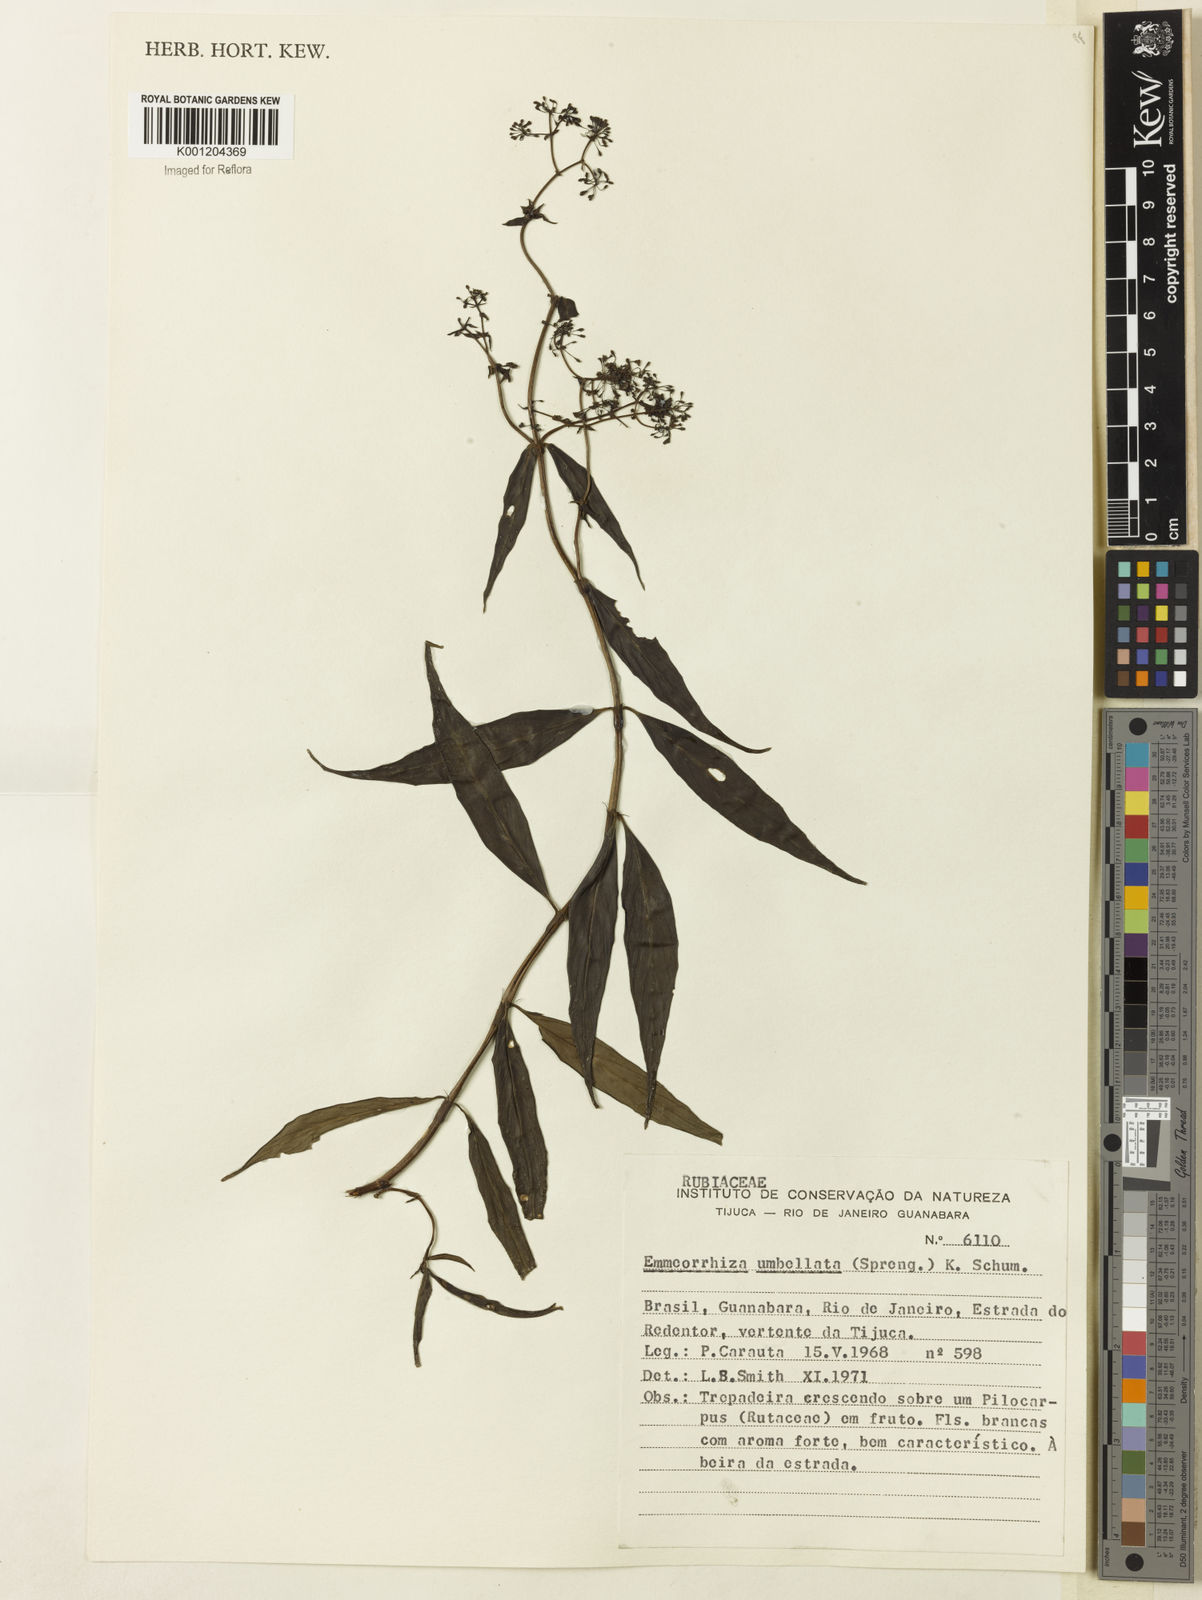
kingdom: Plantae
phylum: Tracheophyta
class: Magnoliopsida
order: Gentianales
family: Rubiaceae
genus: Emmeorhiza
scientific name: Emmeorhiza umbellata
